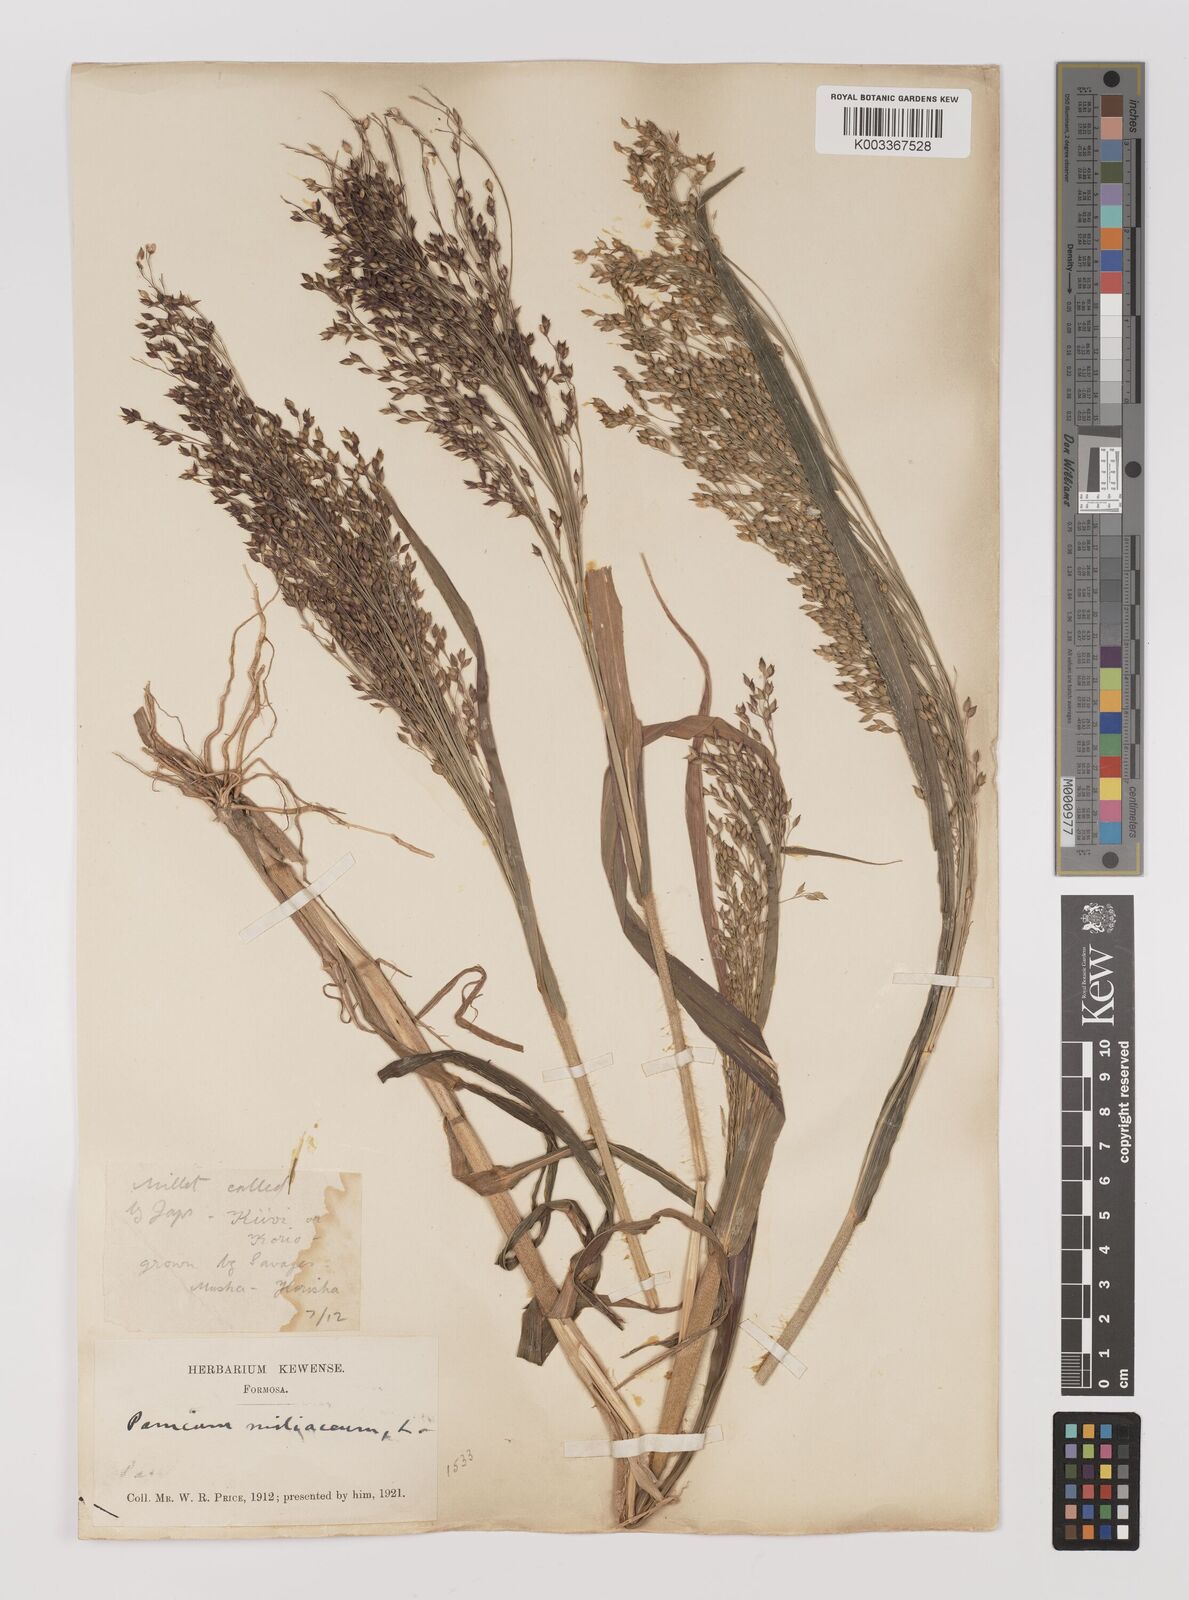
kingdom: Plantae
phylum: Tracheophyta
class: Liliopsida
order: Poales
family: Poaceae
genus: Panicum
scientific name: Panicum miliaceum
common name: Common millet
